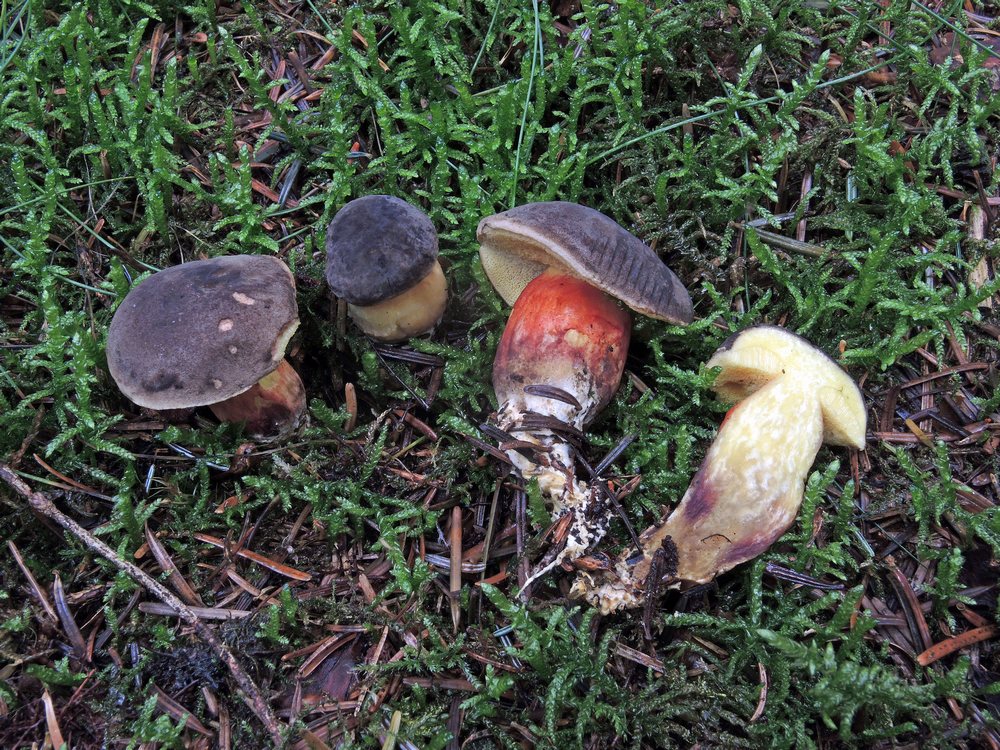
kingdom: Fungi
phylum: Basidiomycota
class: Agaricomycetes
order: Boletales
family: Boletaceae
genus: Xerocomellus
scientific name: Xerocomellus pruinatus
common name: dugget rørhat
